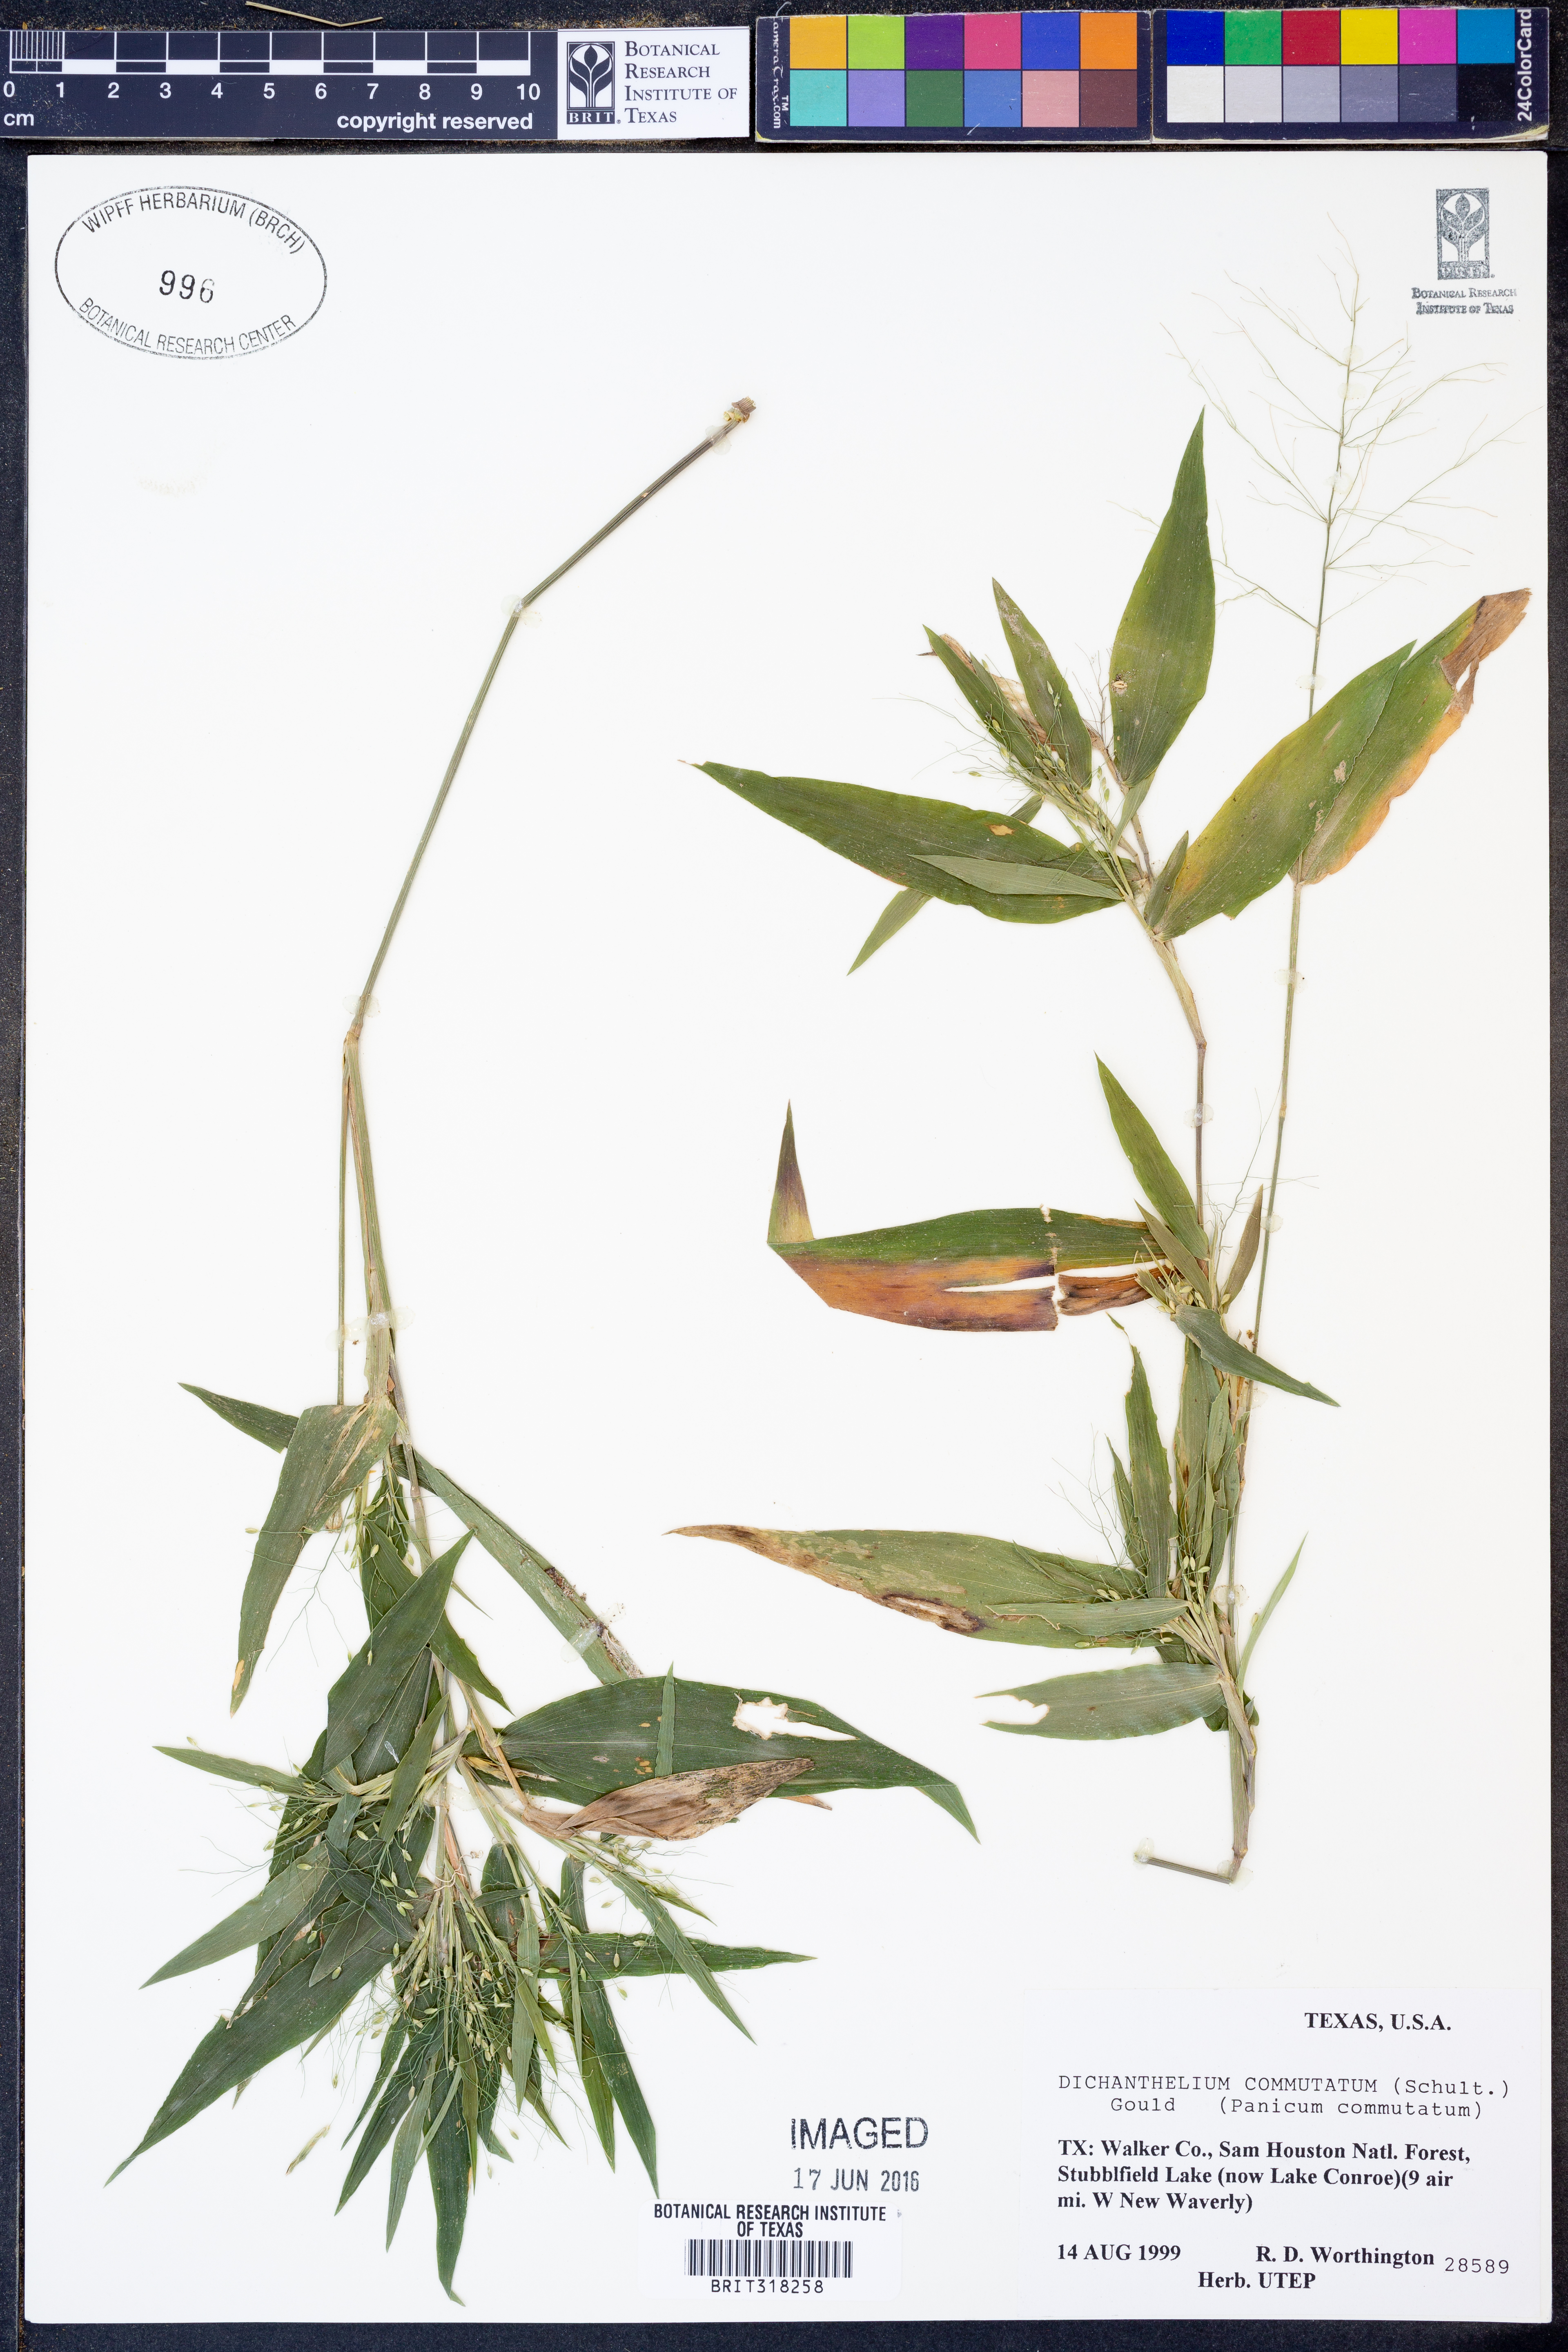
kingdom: Plantae
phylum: Tracheophyta
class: Liliopsida
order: Poales
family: Poaceae
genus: Dichanthelium
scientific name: Dichanthelium commutatum
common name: Variable witchgrass
